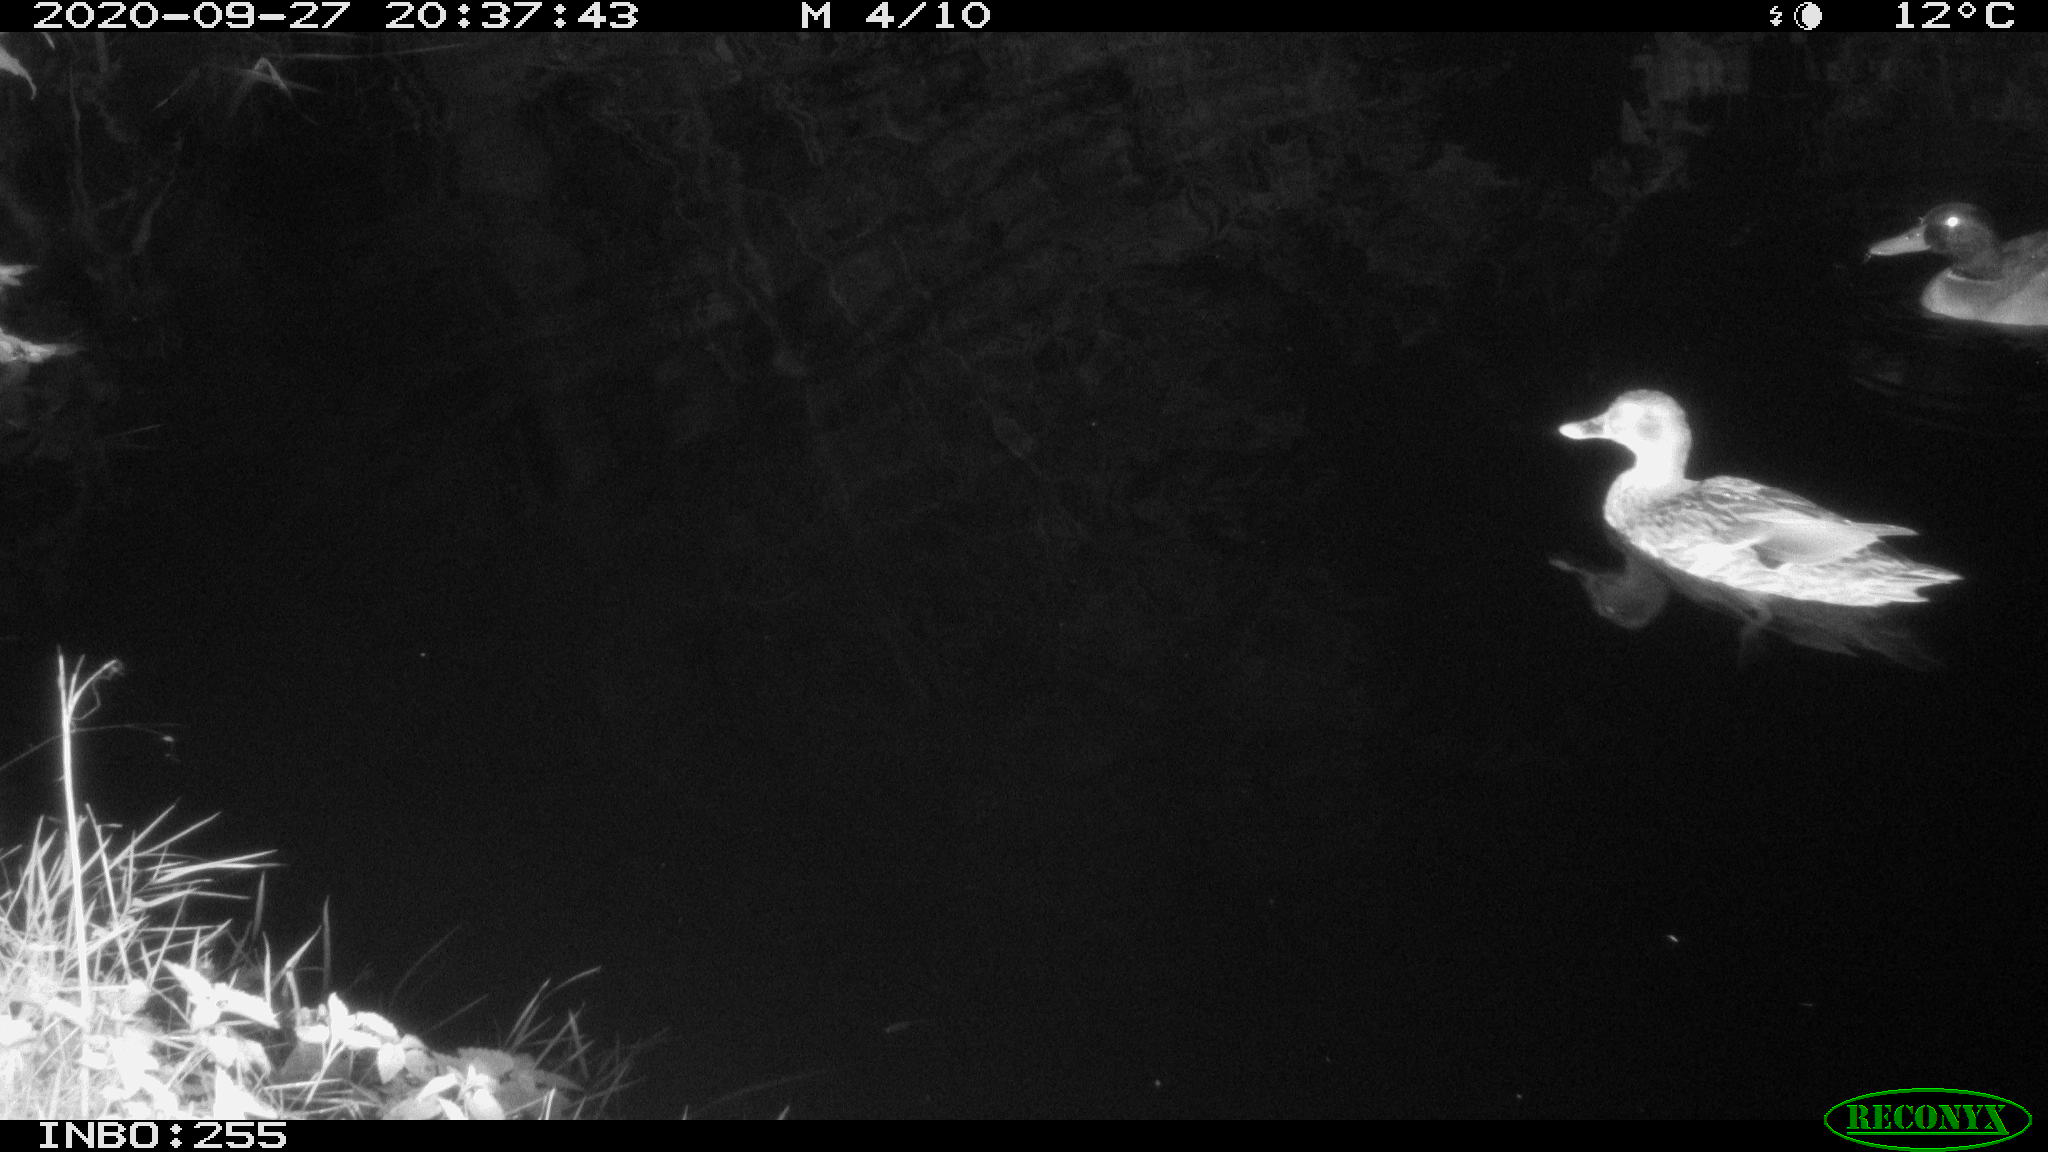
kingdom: Animalia
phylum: Chordata
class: Aves
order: Anseriformes
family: Anatidae
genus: Anas
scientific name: Anas platyrhynchos
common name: Mallard
